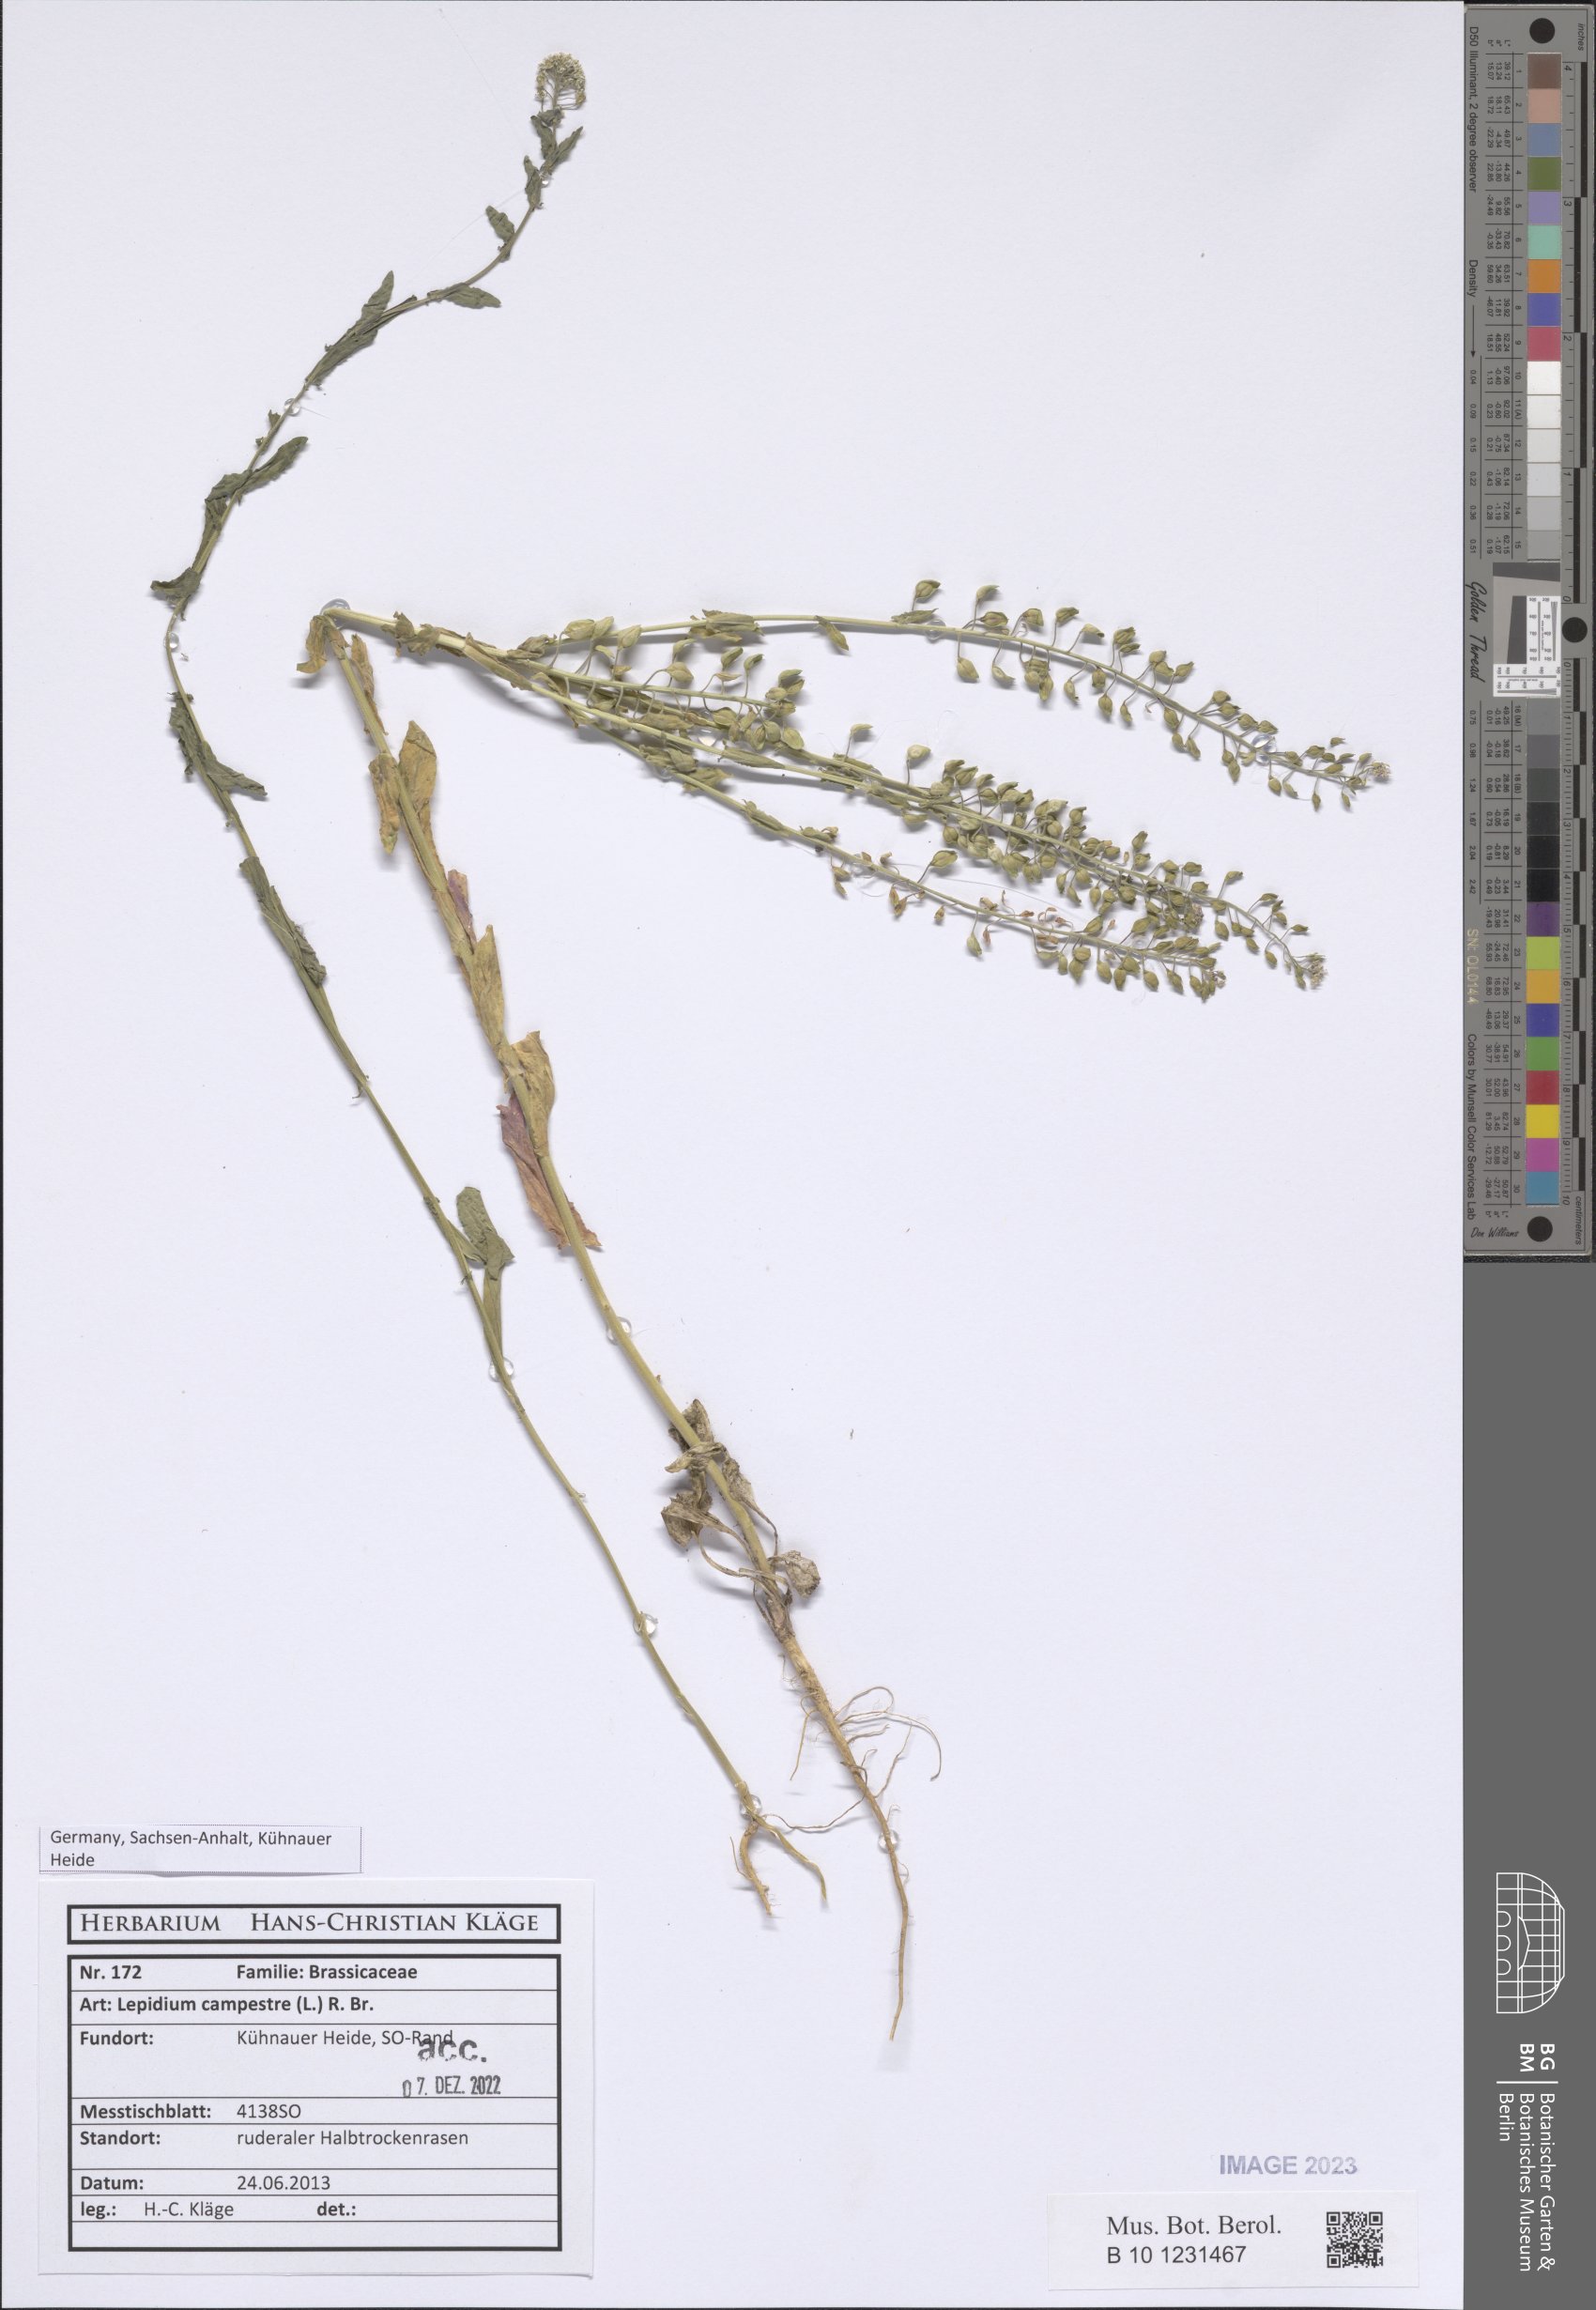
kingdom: Plantae
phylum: Tracheophyta
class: Magnoliopsida
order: Brassicales
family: Brassicaceae
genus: Lepidium
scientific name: Lepidium campestre
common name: Field pepperwort
